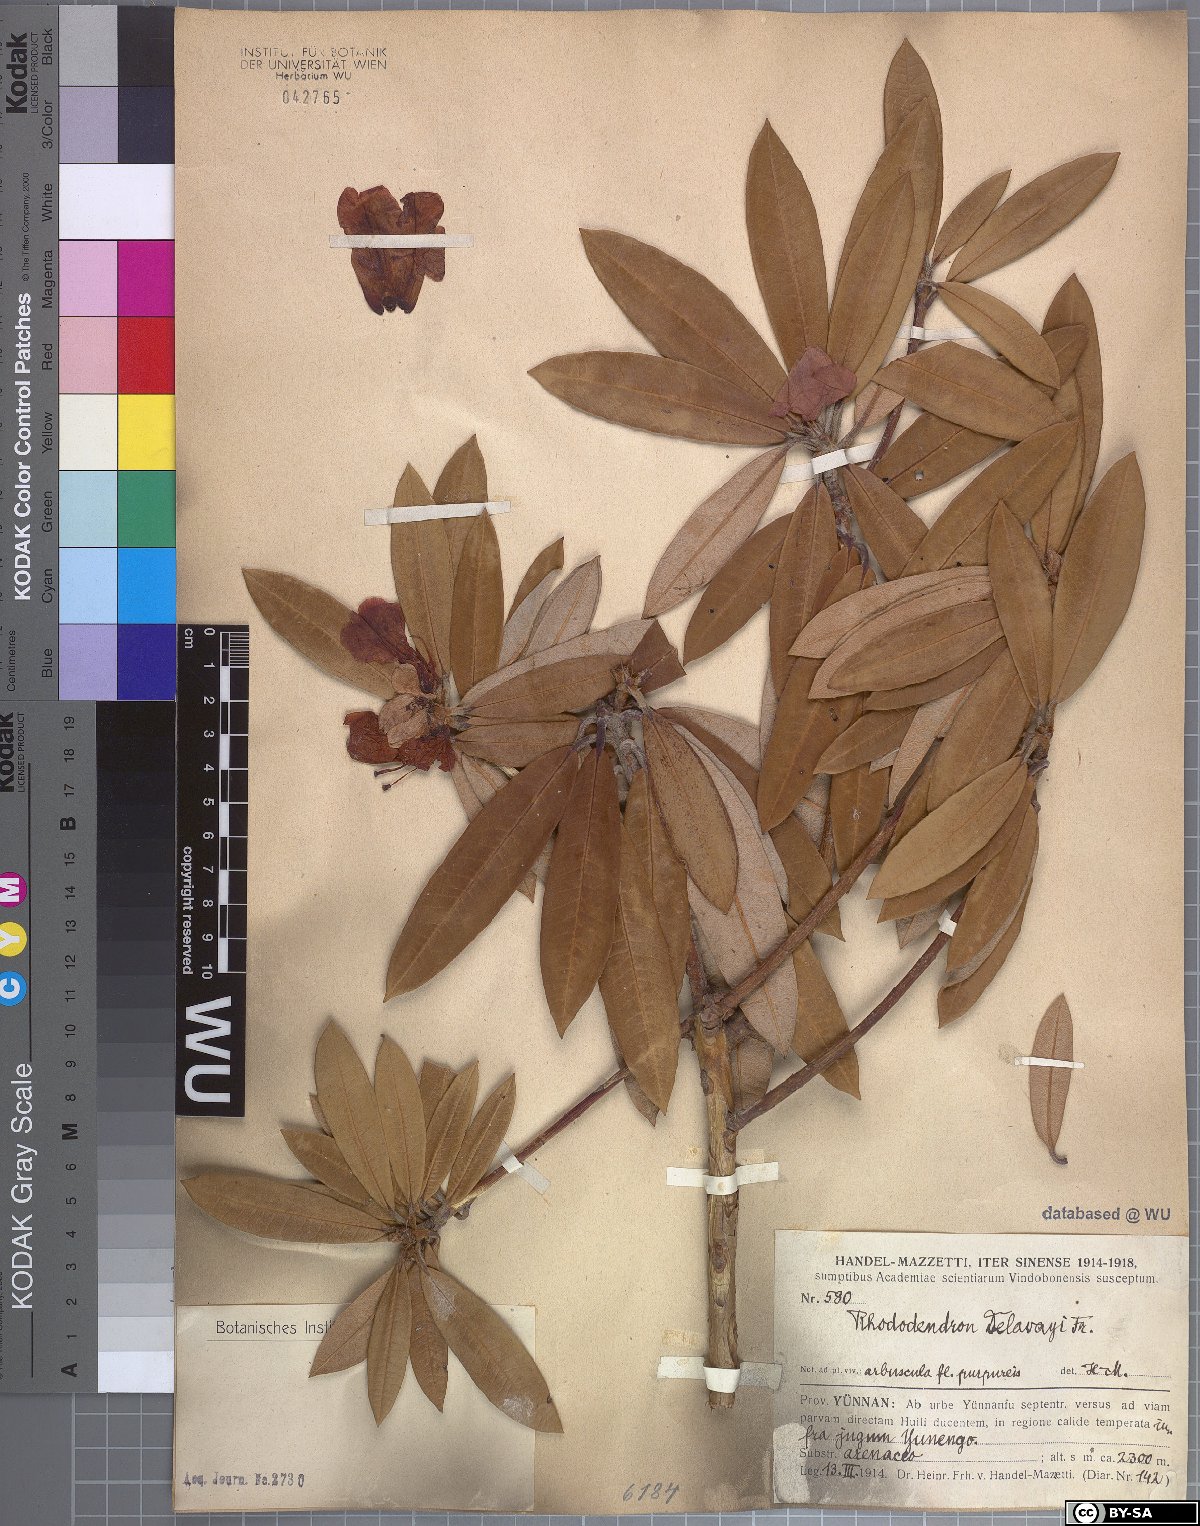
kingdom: Plantae
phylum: Tracheophyta
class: Magnoliopsida
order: Ericales
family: Ericaceae
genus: Rhododendron
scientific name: Rhododendron delavayi
